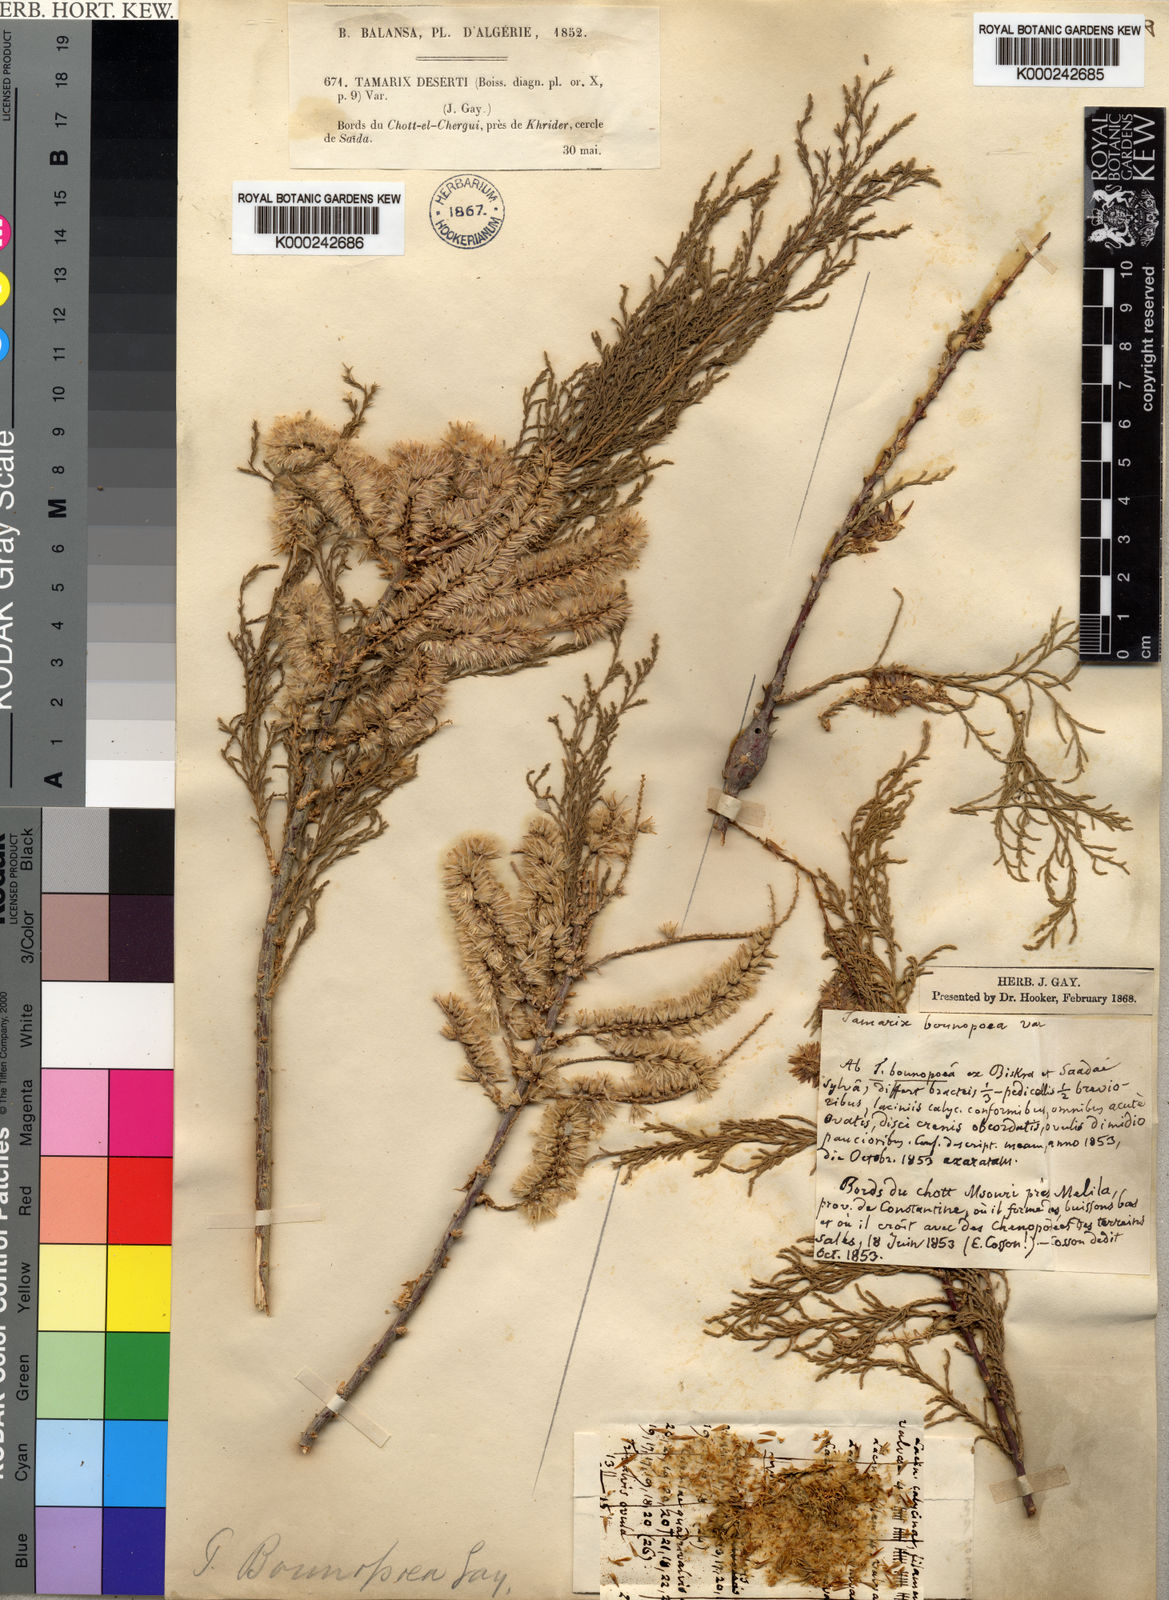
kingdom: Plantae
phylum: Tracheophyta
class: Magnoliopsida
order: Caryophyllales
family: Tamaricaceae
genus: Tamarix
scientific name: Tamarix
